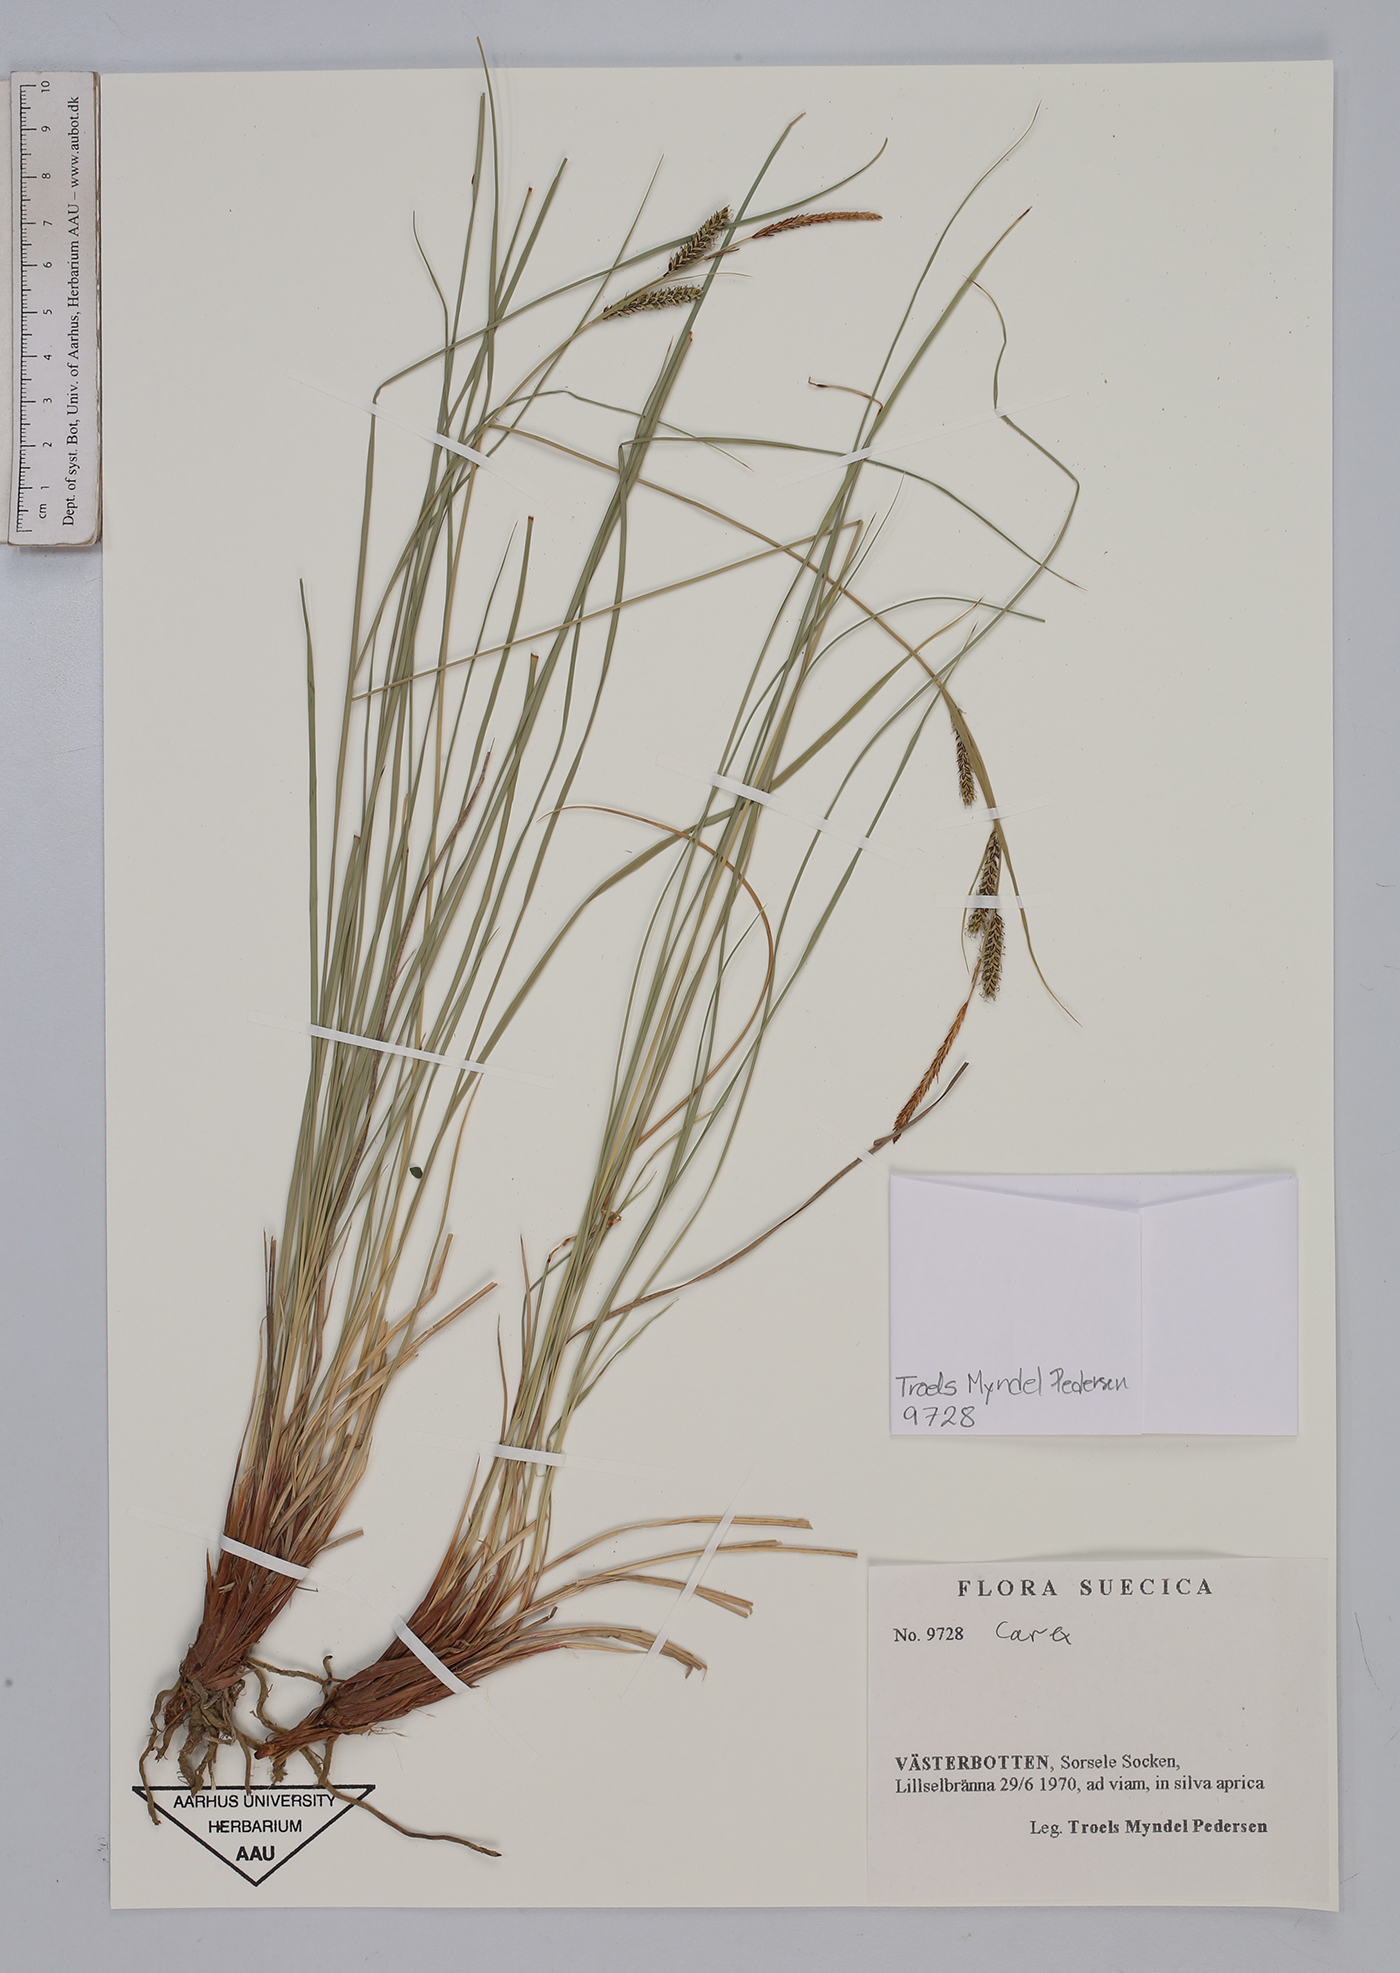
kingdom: Plantae
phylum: Tracheophyta
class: Liliopsida
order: Poales
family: Cyperaceae
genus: Carex
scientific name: Carex
